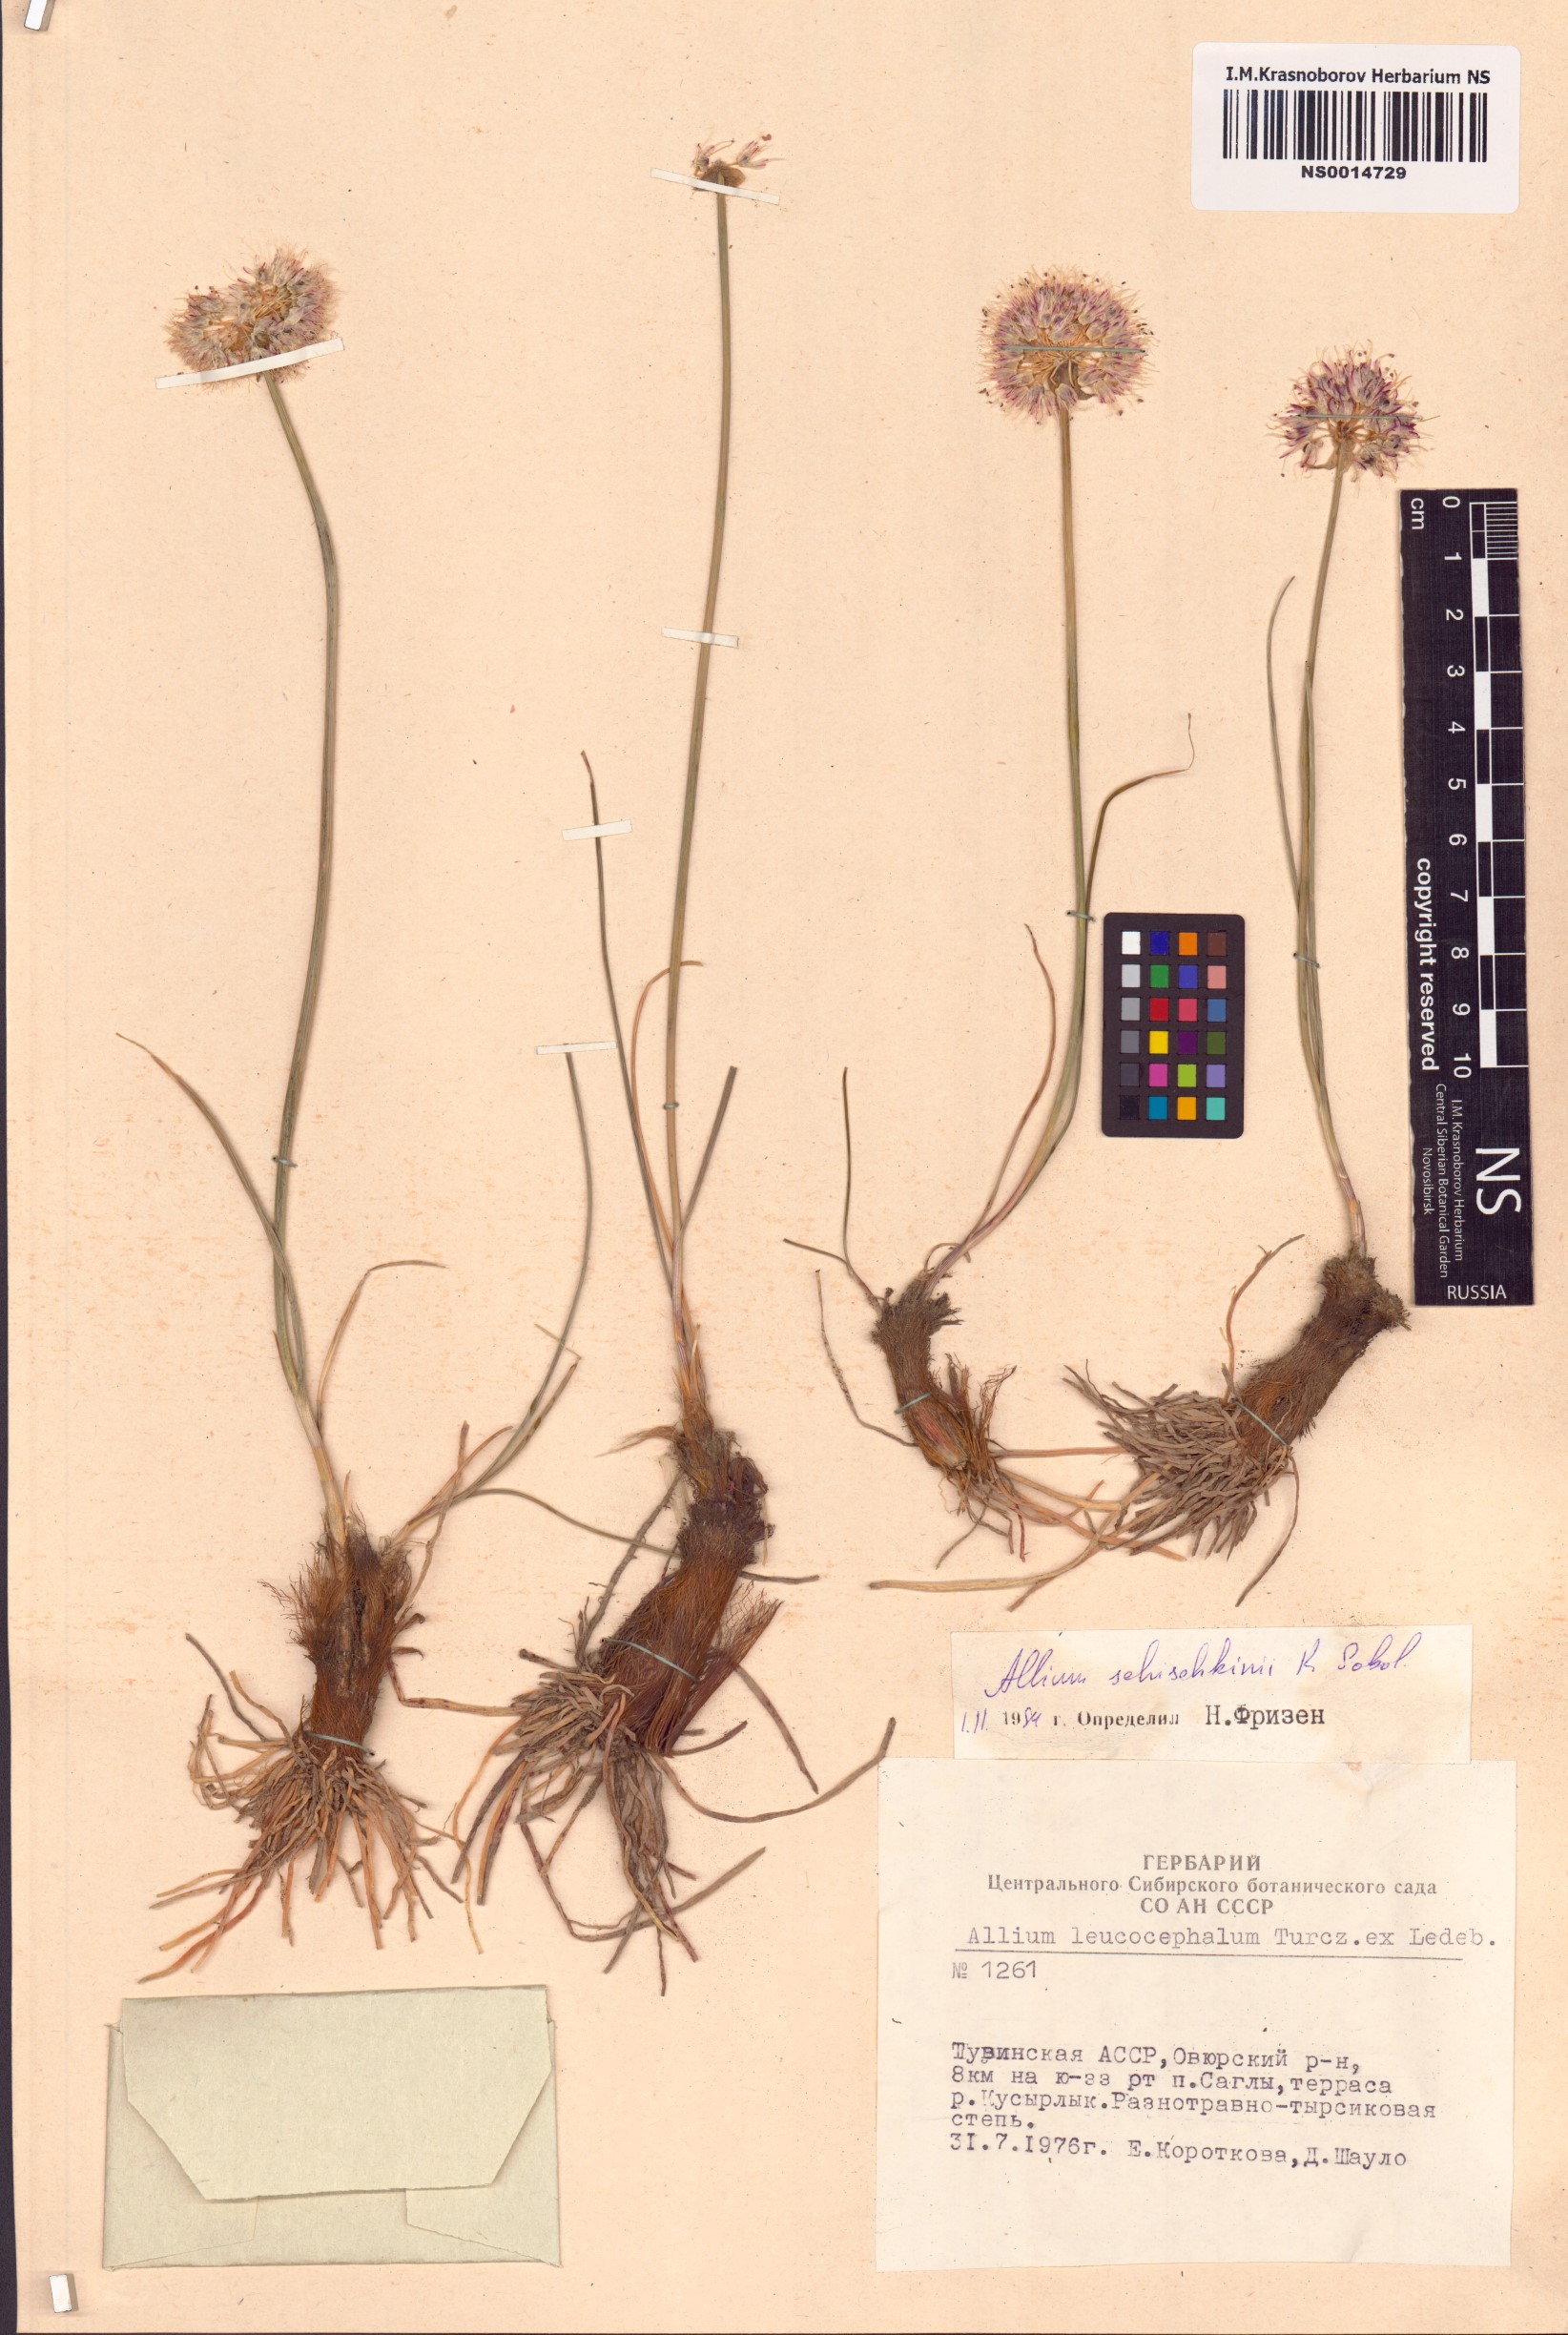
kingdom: Plantae
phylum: Tracheophyta
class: Liliopsida
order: Asparagales
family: Amaryllidaceae
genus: Allium
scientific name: Allium schischkinii
